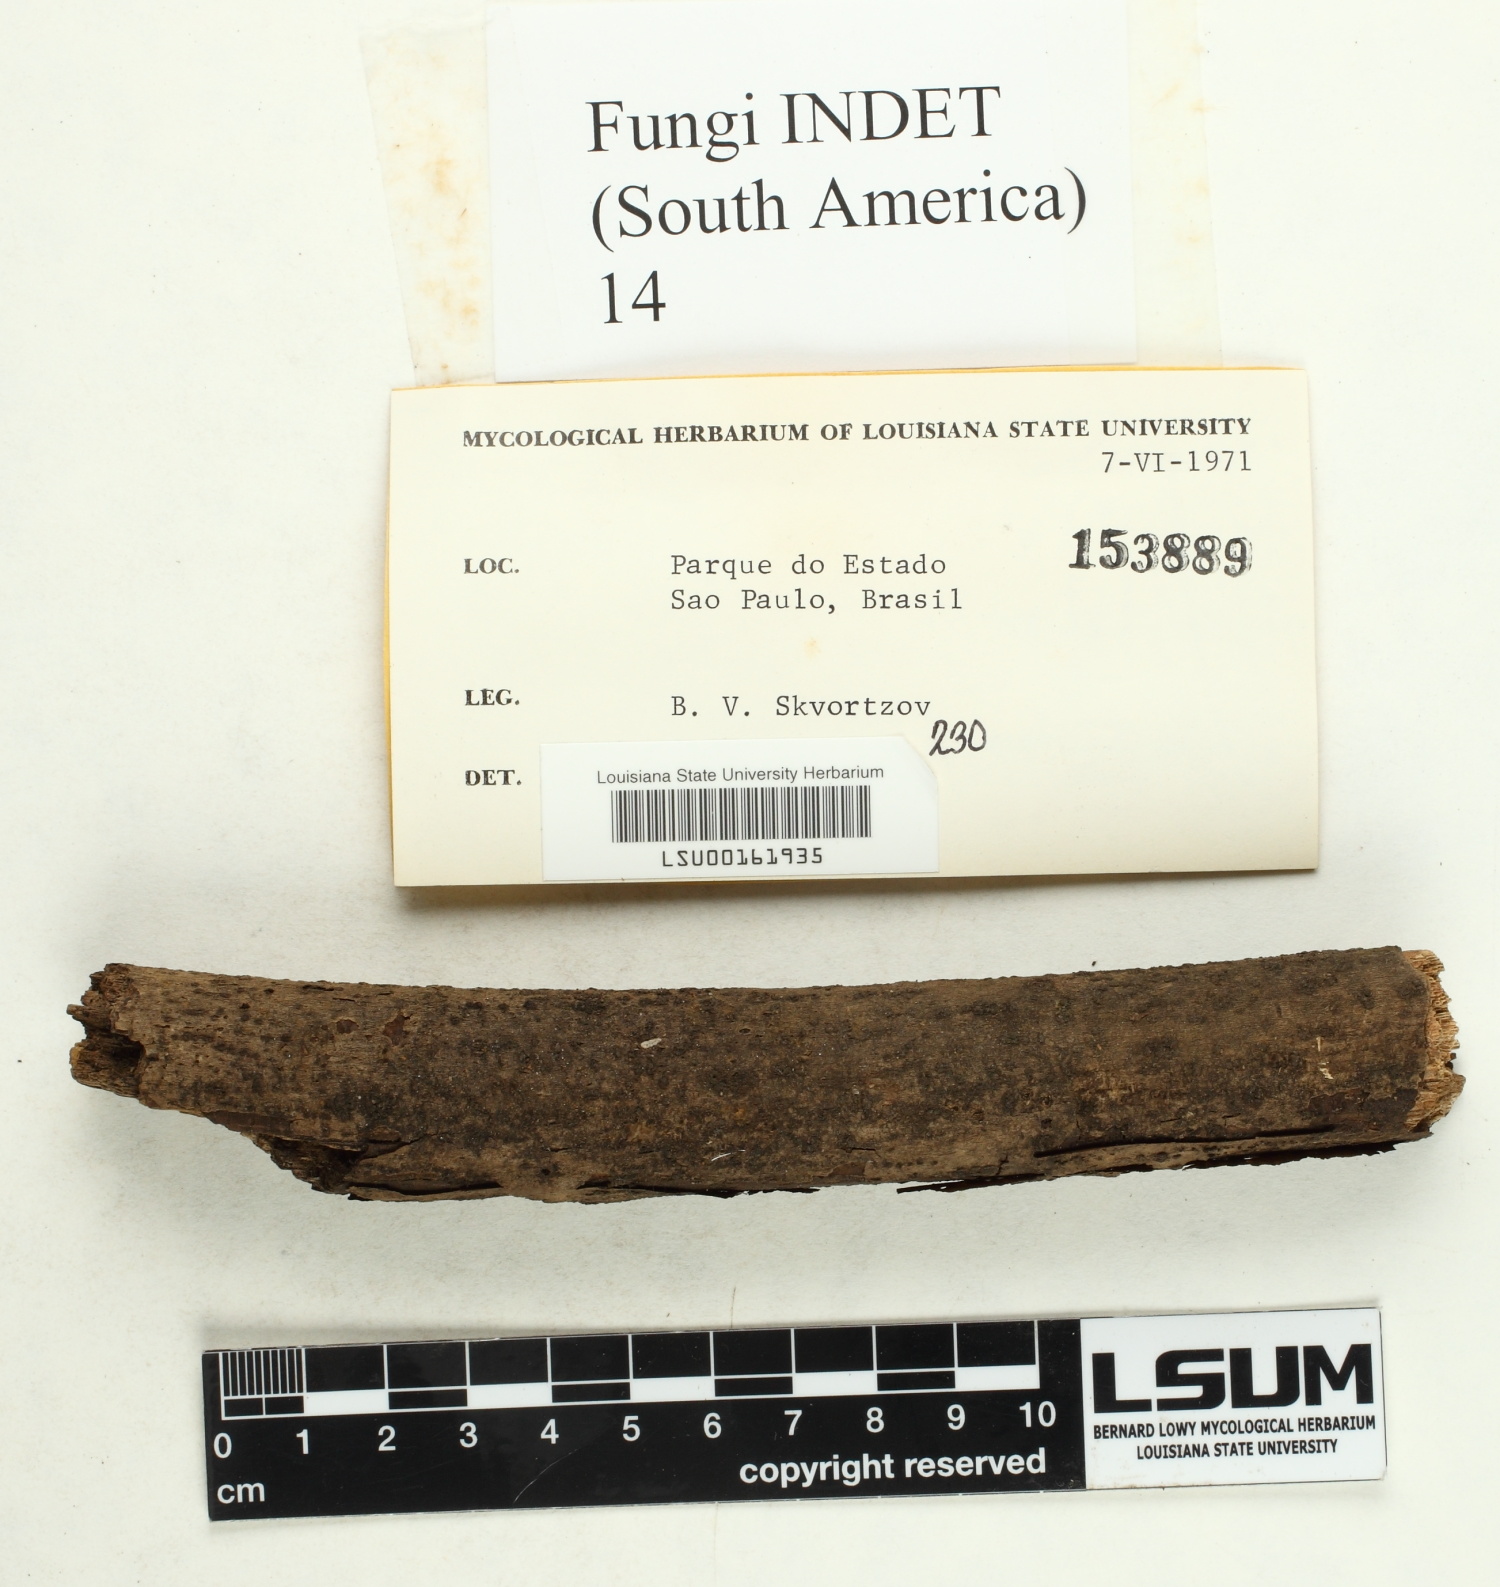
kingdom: Fungi
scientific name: Fungi
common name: Fungi
